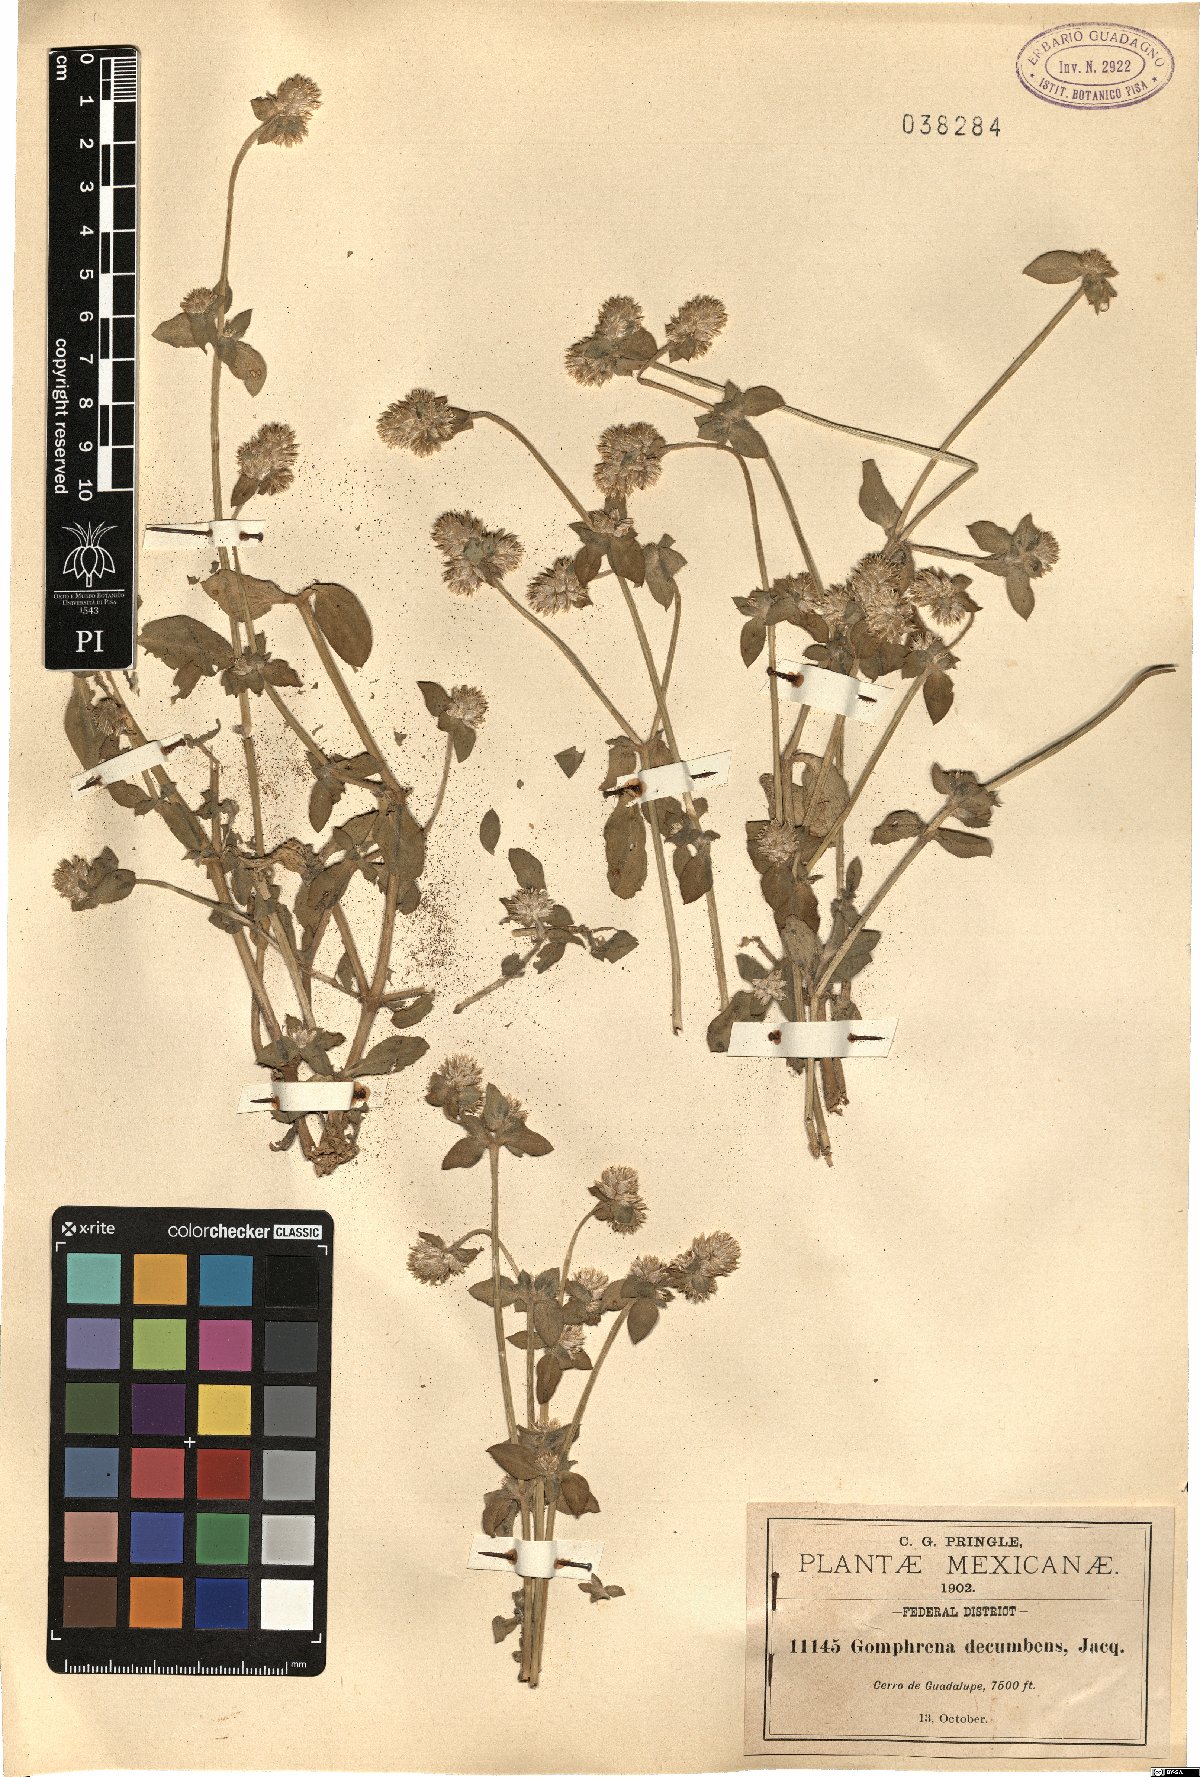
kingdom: Plantae
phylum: Tracheophyta
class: Magnoliopsida
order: Caryophyllales
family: Amaranthaceae
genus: Gomphrena
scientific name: Gomphrena serrata
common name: Arrasa con todo
